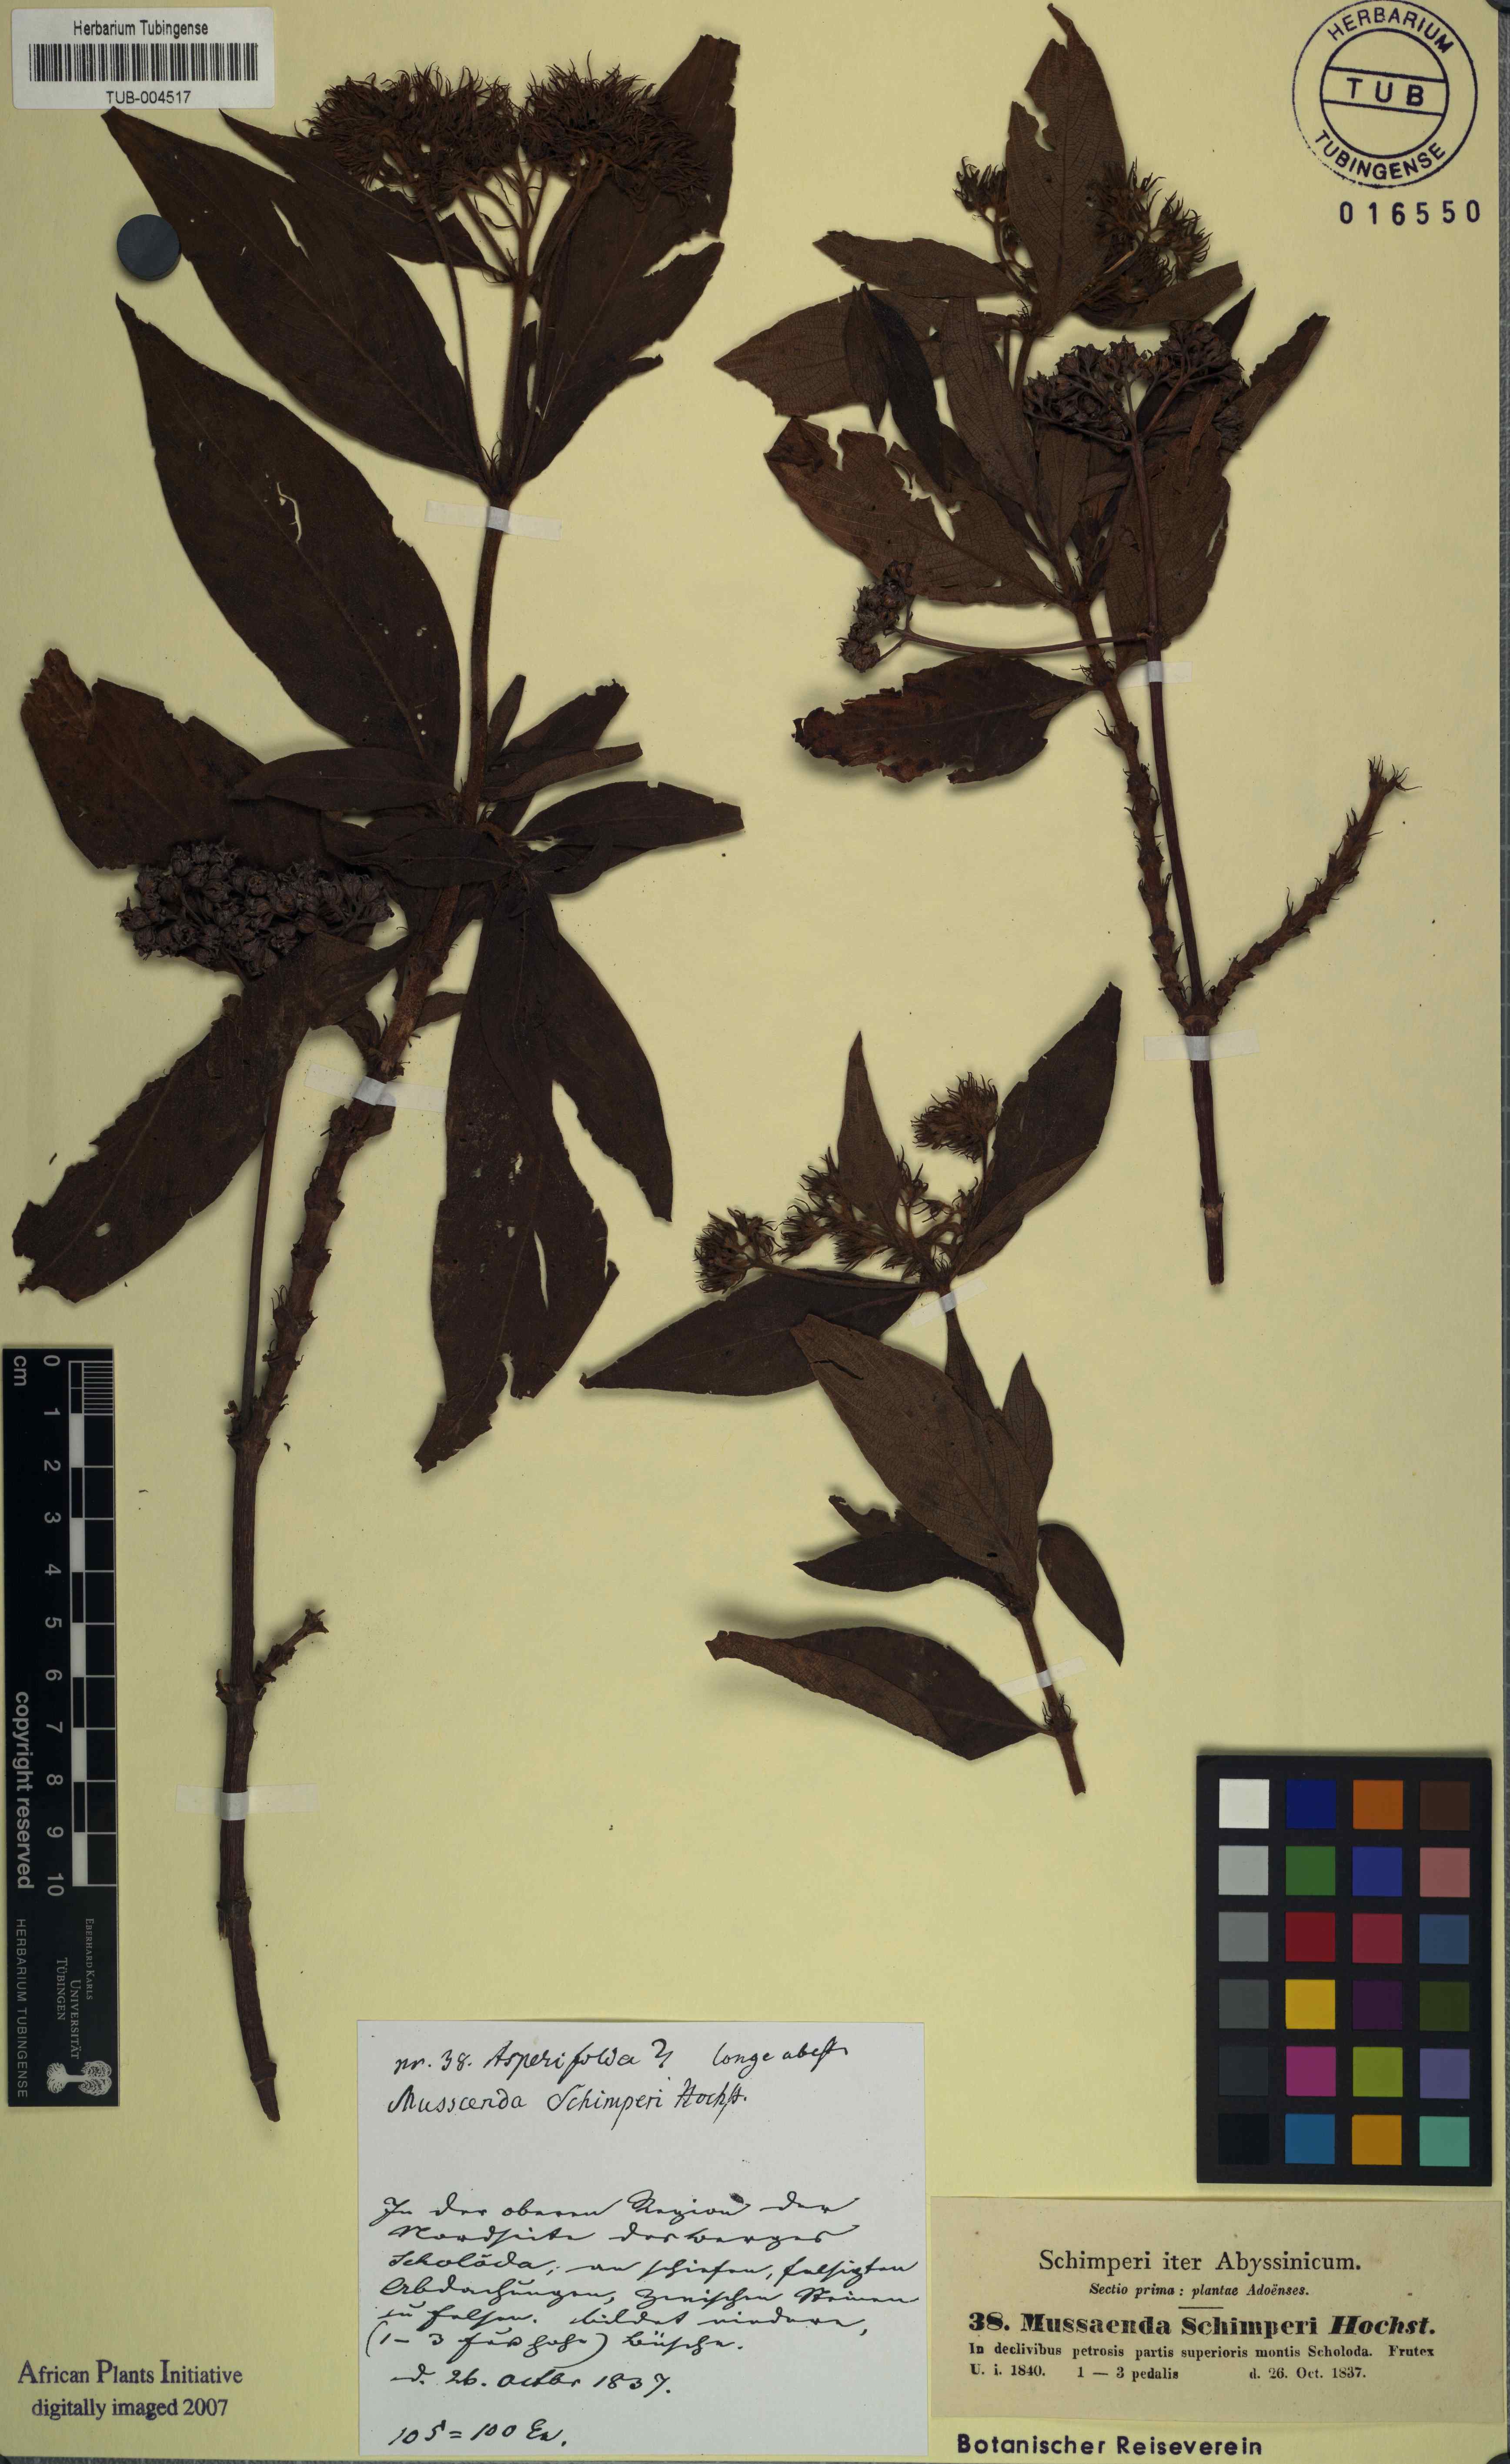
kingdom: Plantae
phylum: Tracheophyta
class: Magnoliopsida
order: Gentianales
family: Rubiaceae
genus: Phyllopentas
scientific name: Phyllopentas schimperi
